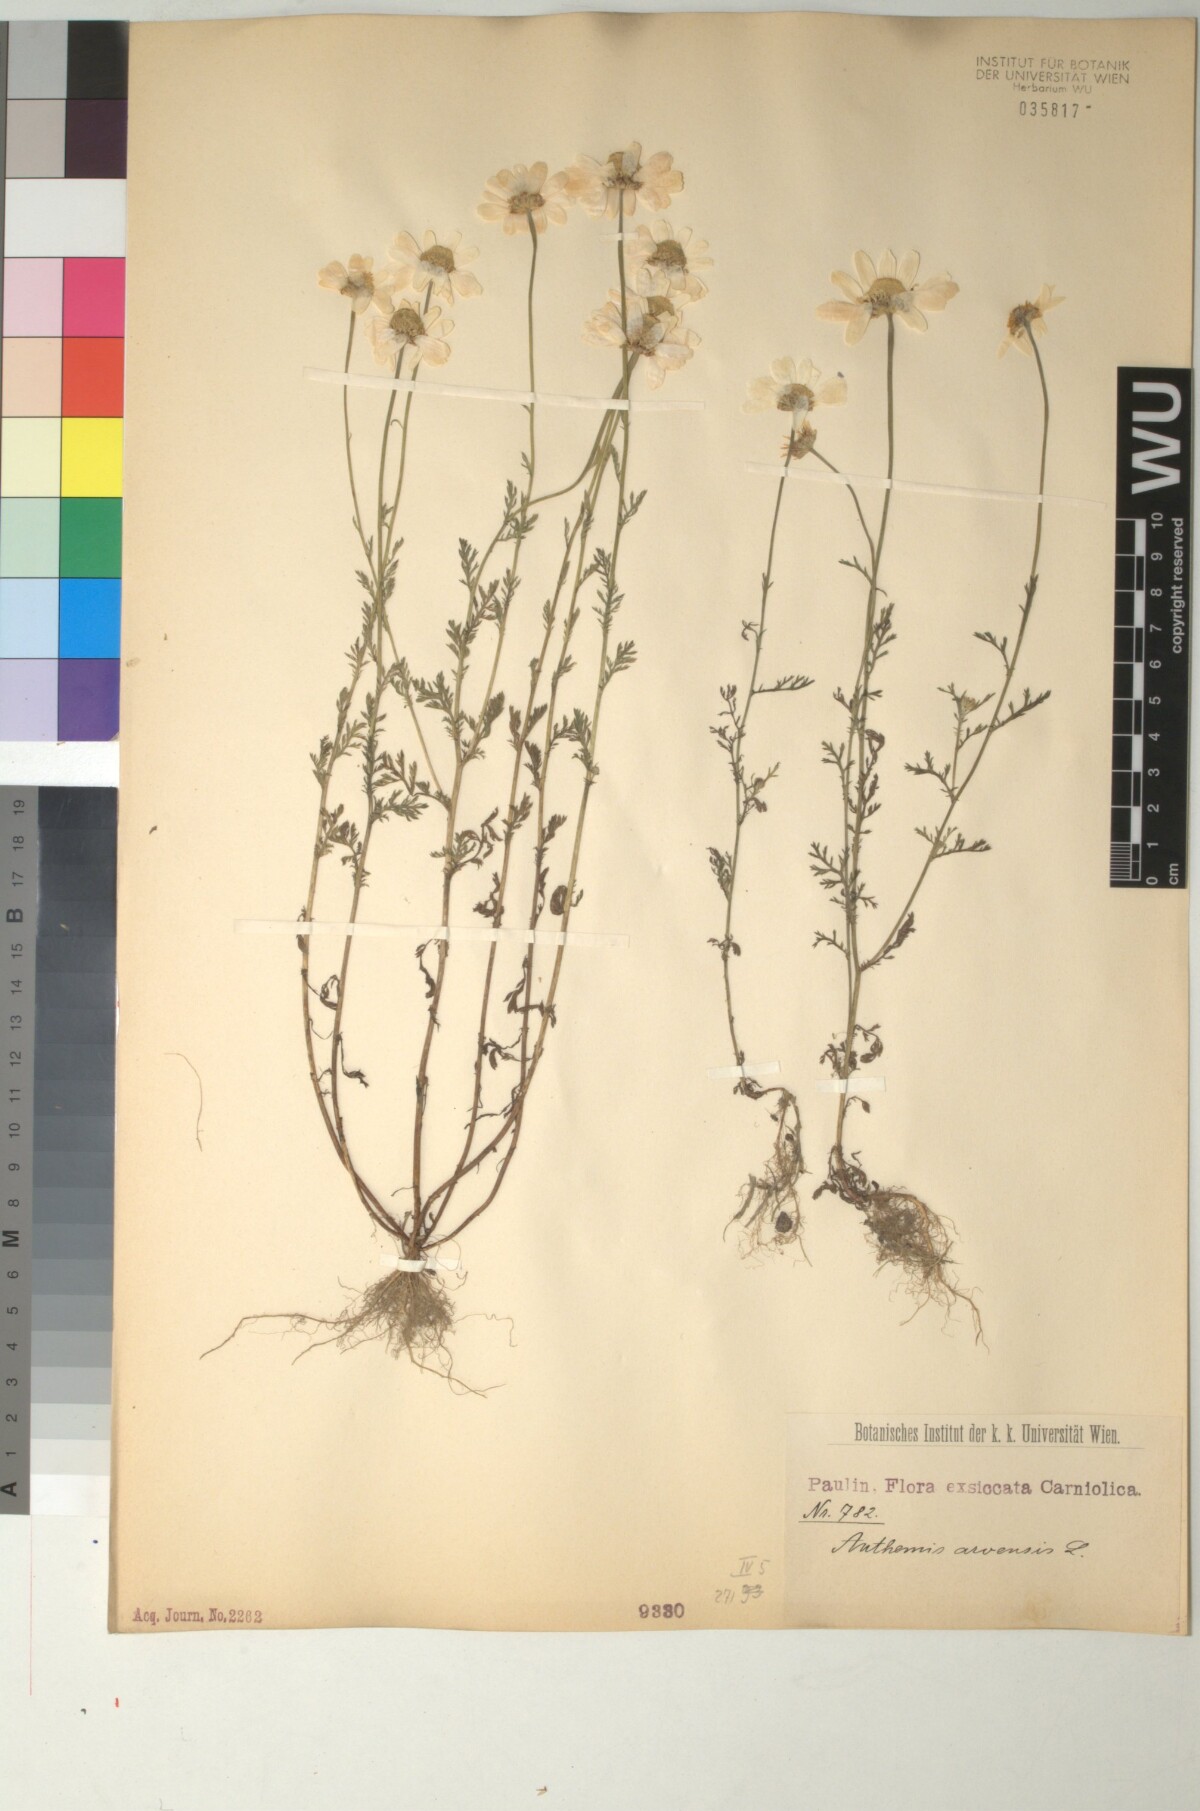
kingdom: Plantae
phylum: Tracheophyta
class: Magnoliopsida
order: Asterales
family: Asteraceae
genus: Anthemis
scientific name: Anthemis arvensis
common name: Corn chamomile
